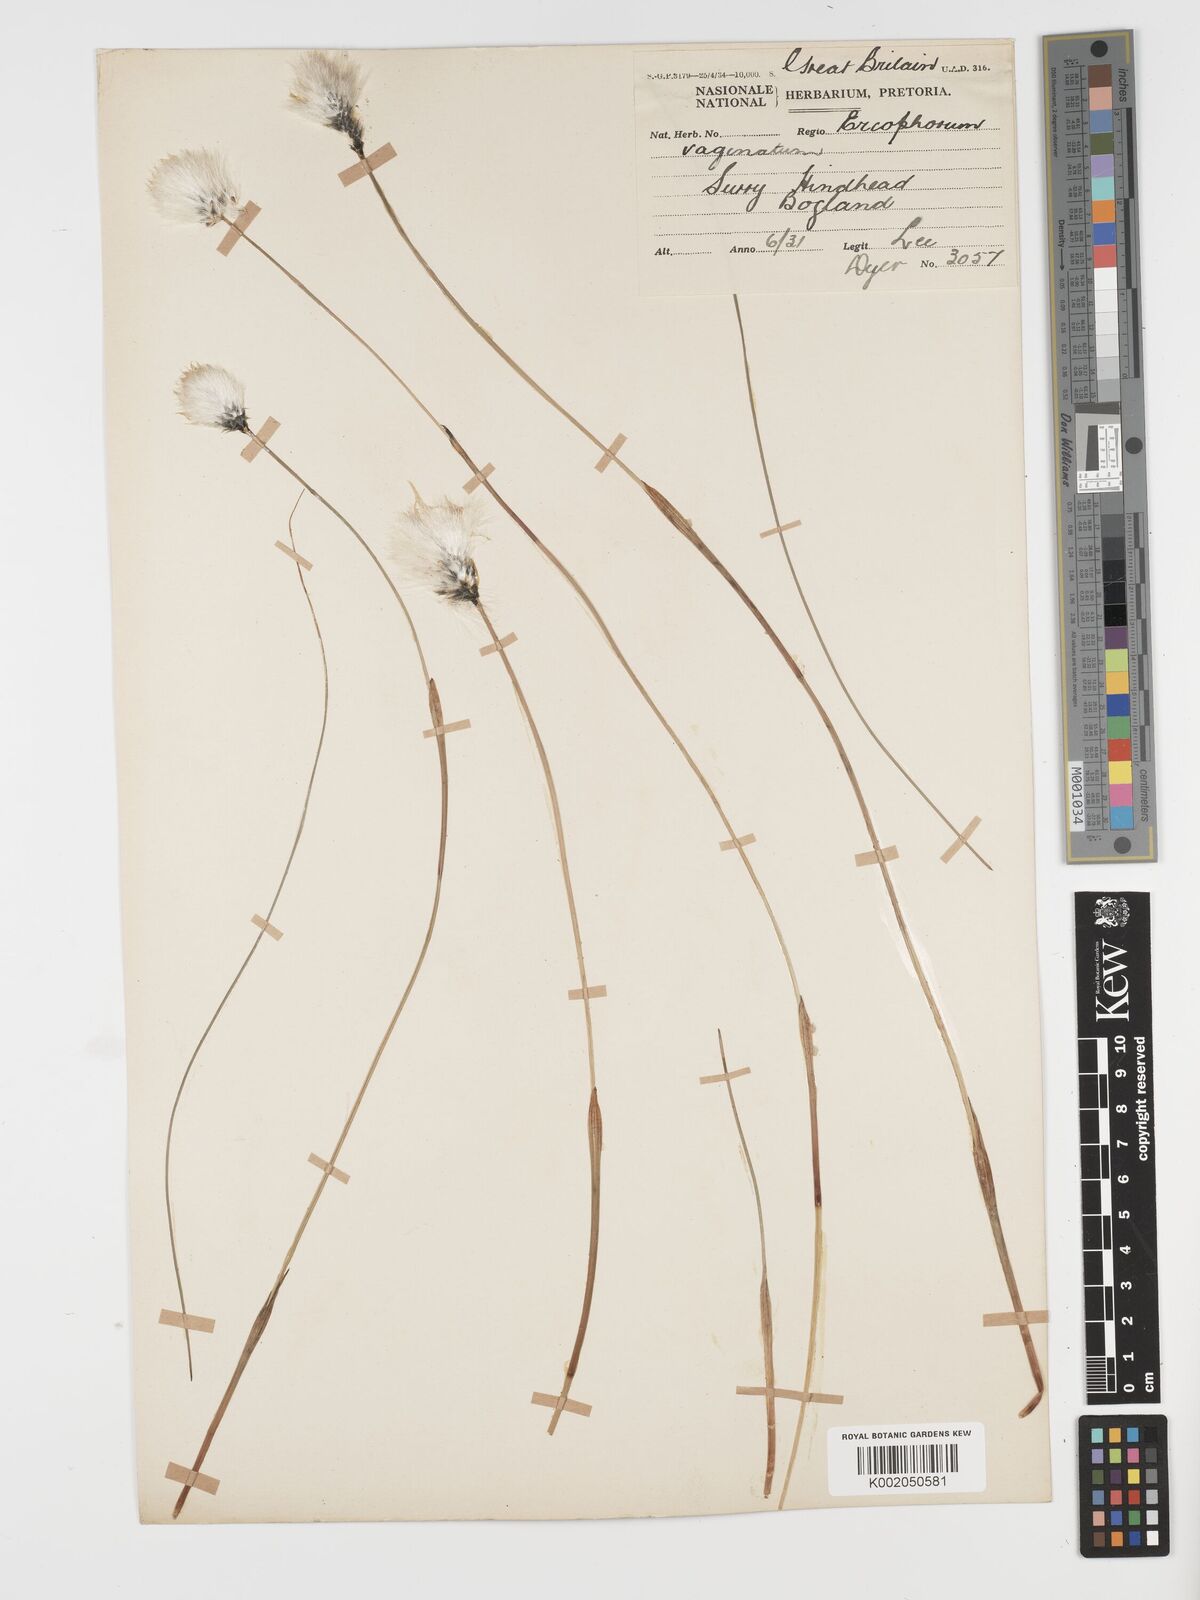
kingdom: Plantae
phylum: Tracheophyta
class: Liliopsida
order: Poales
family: Cyperaceae
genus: Eriophorum
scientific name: Eriophorum vaginatum
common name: Hare's-tail cottongrass
